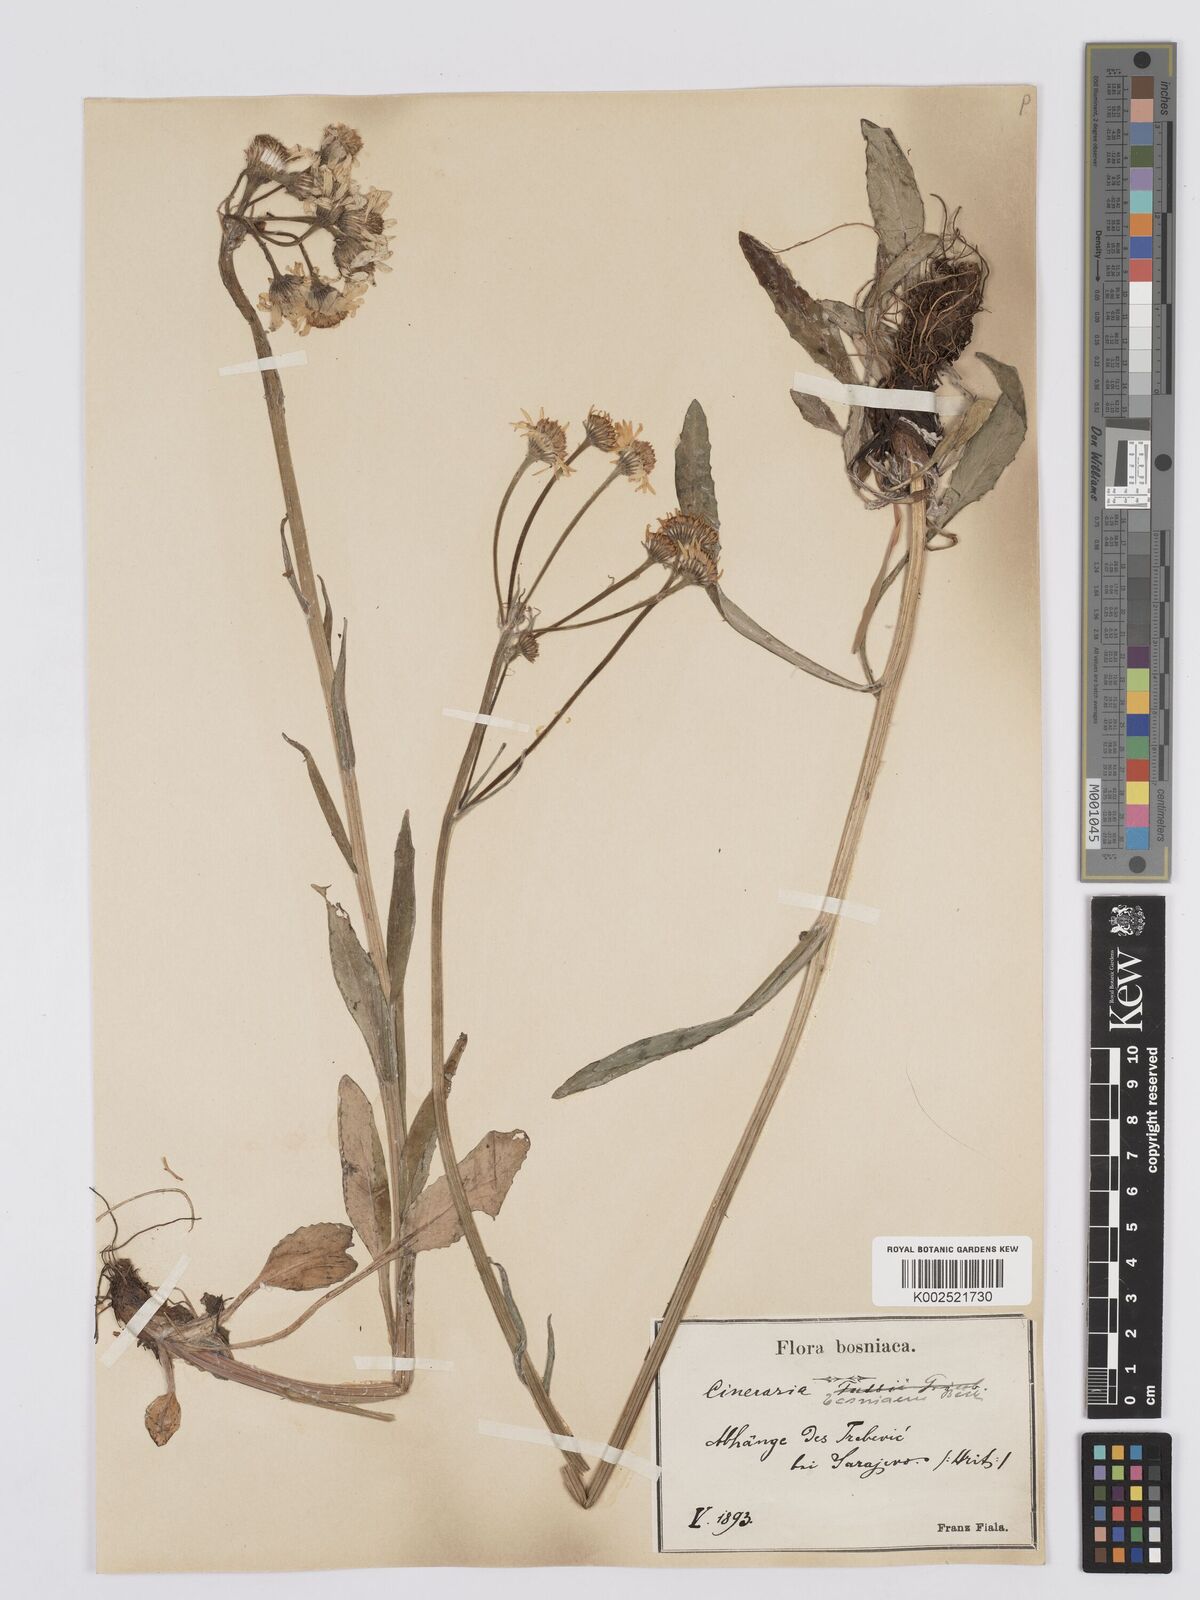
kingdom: Plantae
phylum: Tracheophyta
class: Magnoliopsida
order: Asterales
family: Asteraceae
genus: Tephroseris
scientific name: Tephroseris papposa
